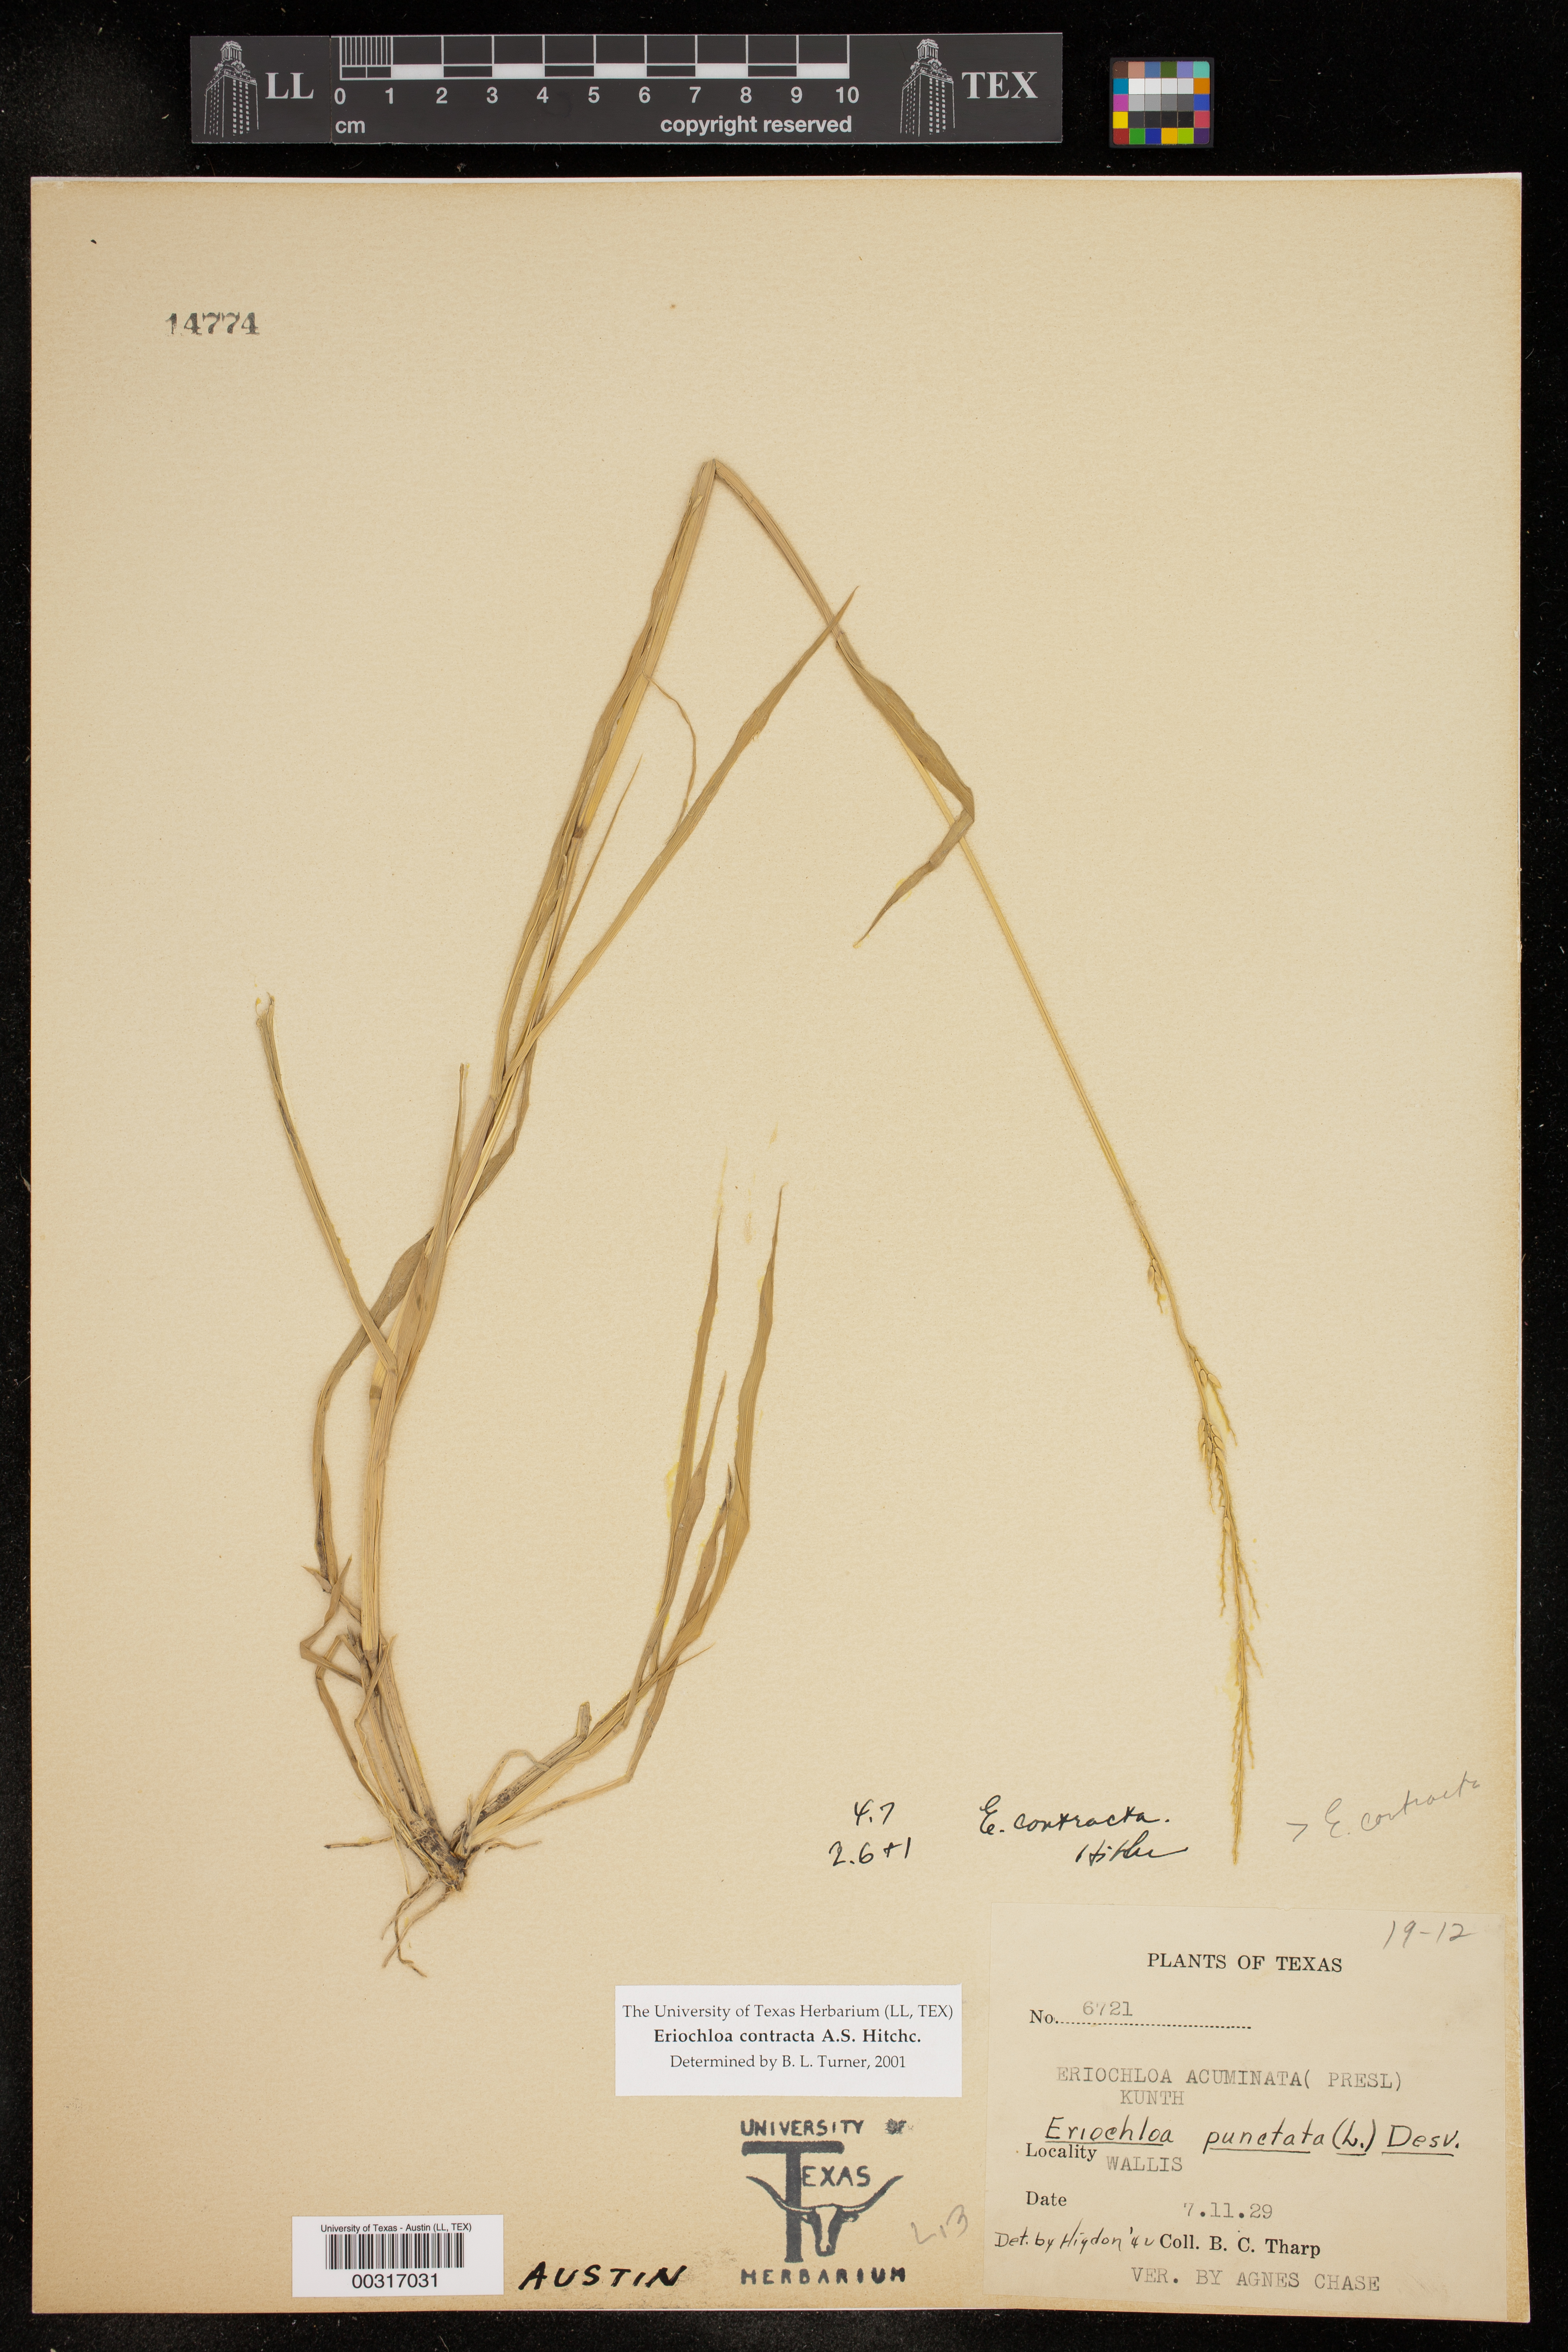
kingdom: Plantae
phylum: Tracheophyta
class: Liliopsida
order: Poales
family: Poaceae
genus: Eriochloa
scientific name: Eriochloa contracta
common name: Prairie cup grass
